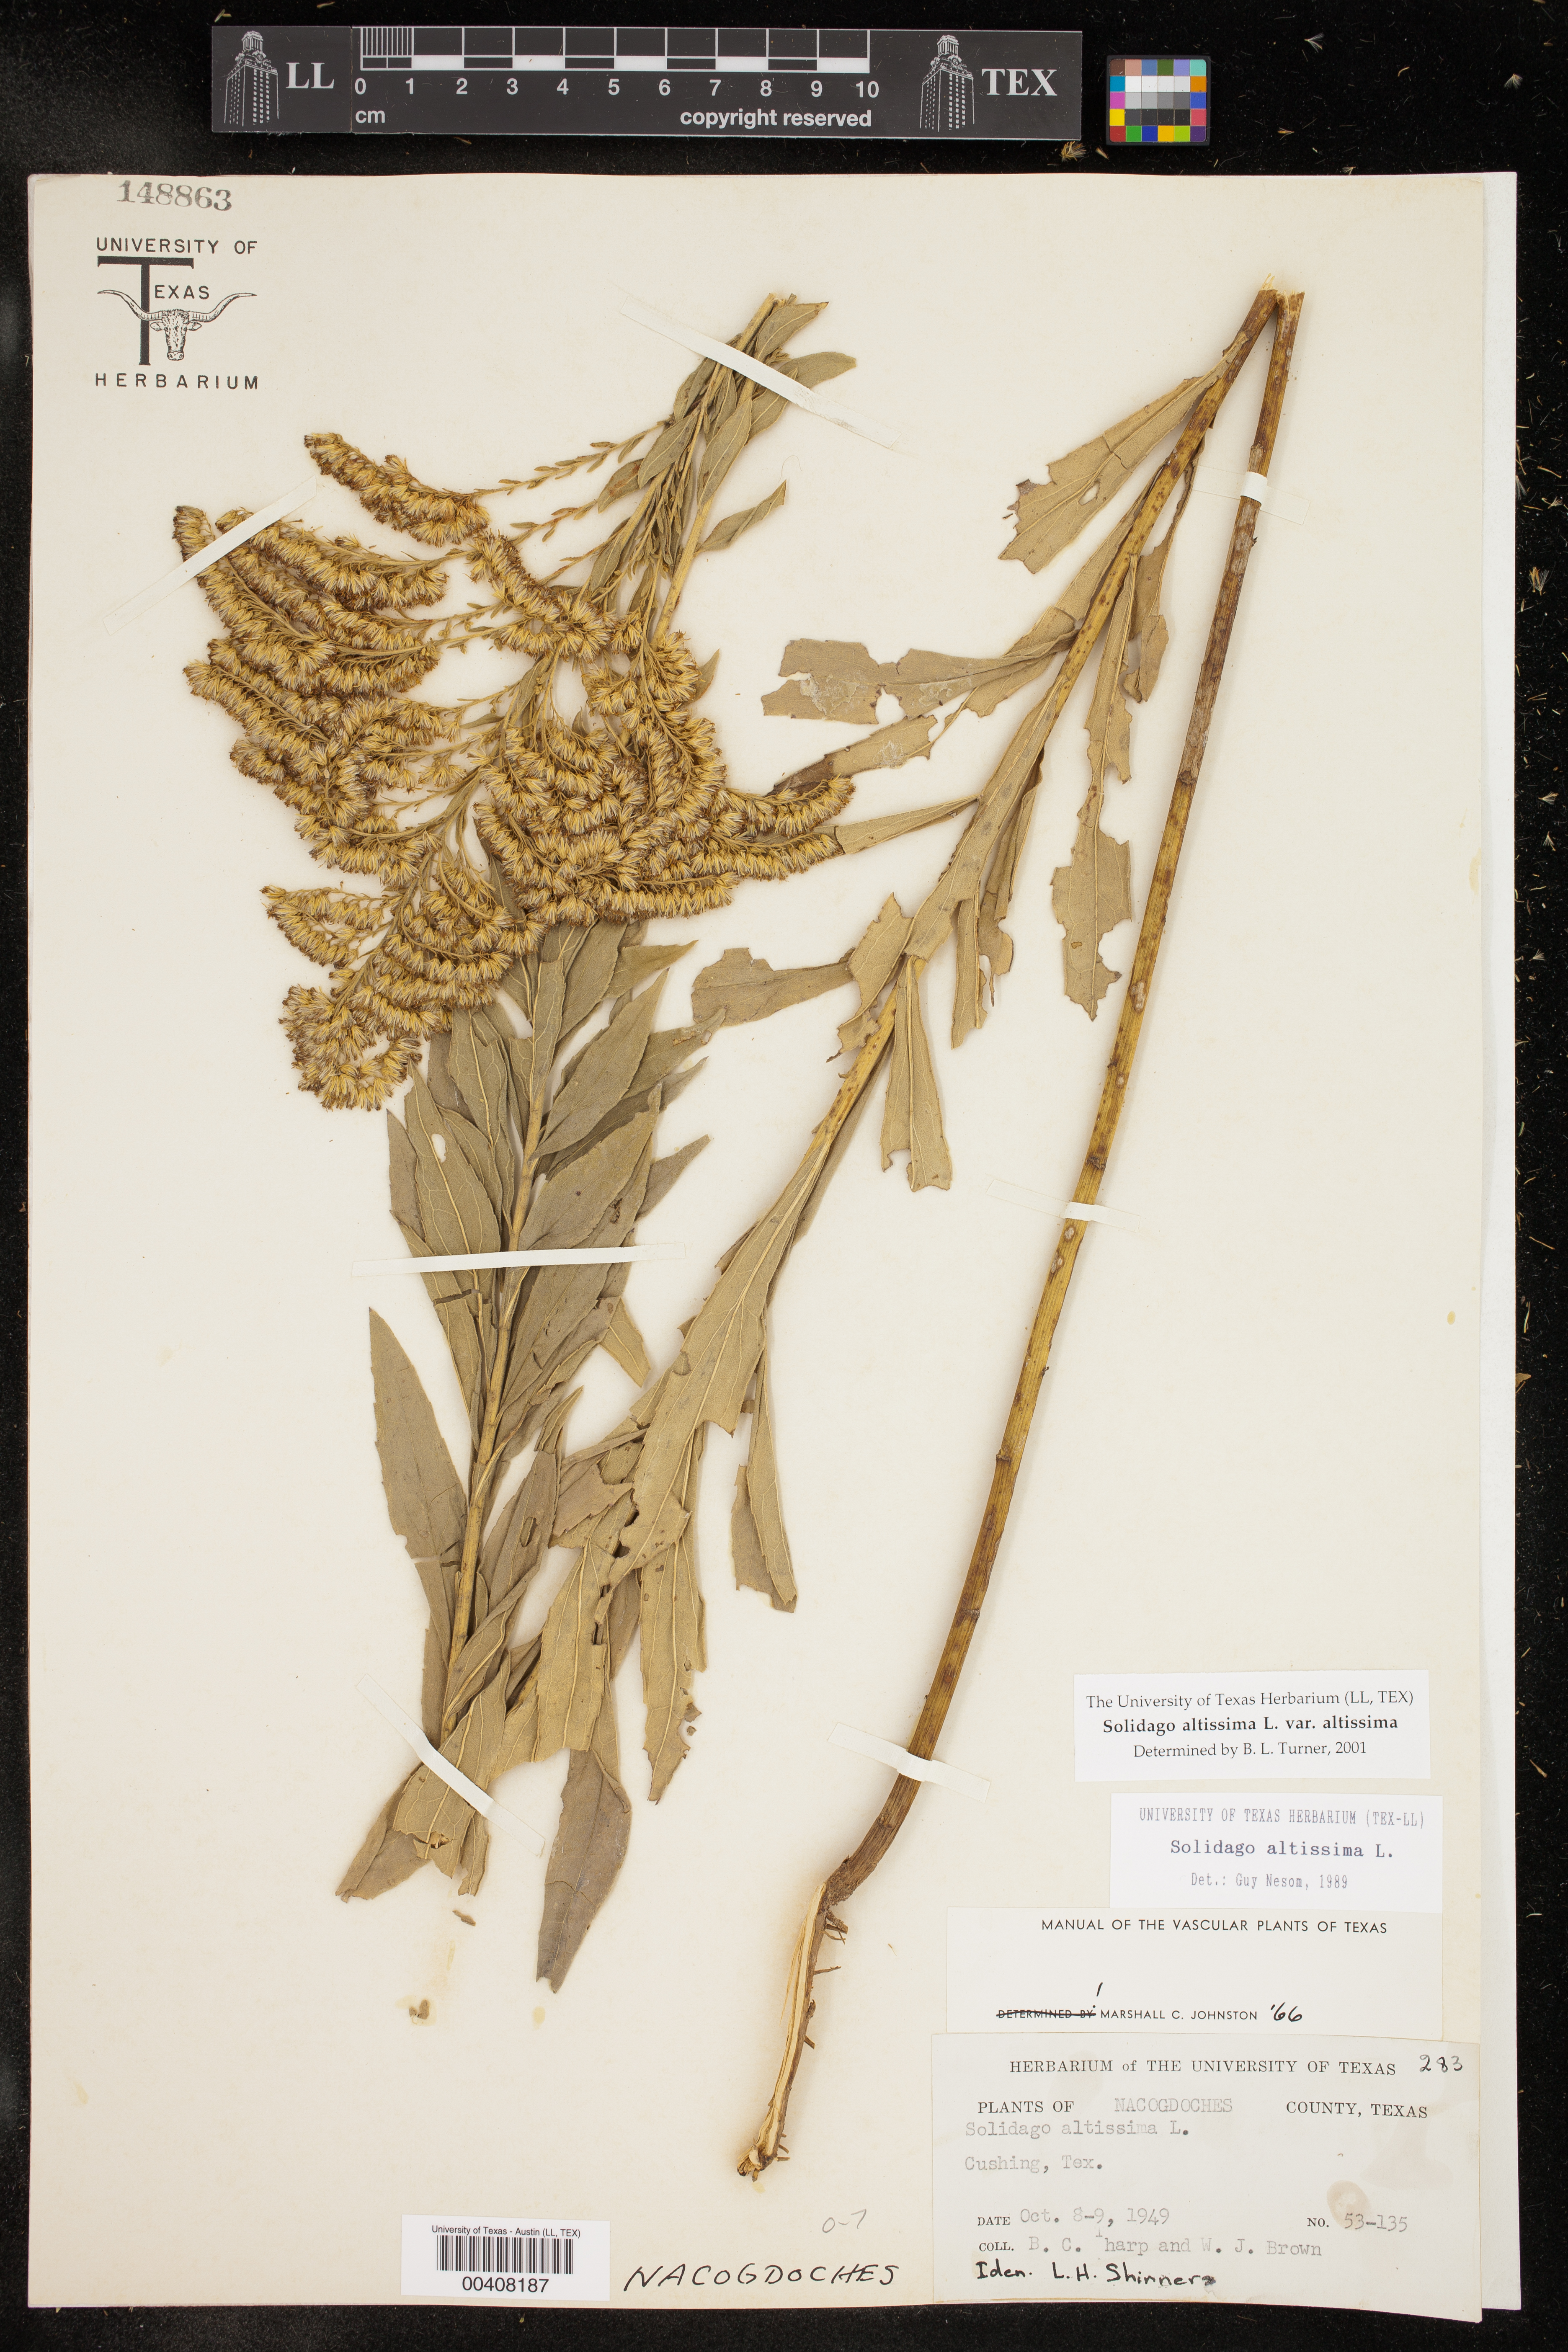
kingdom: Plantae
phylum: Tracheophyta
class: Magnoliopsida
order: Asterales
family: Asteraceae
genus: Solidago
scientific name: Solidago altissima
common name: Late goldenrod
